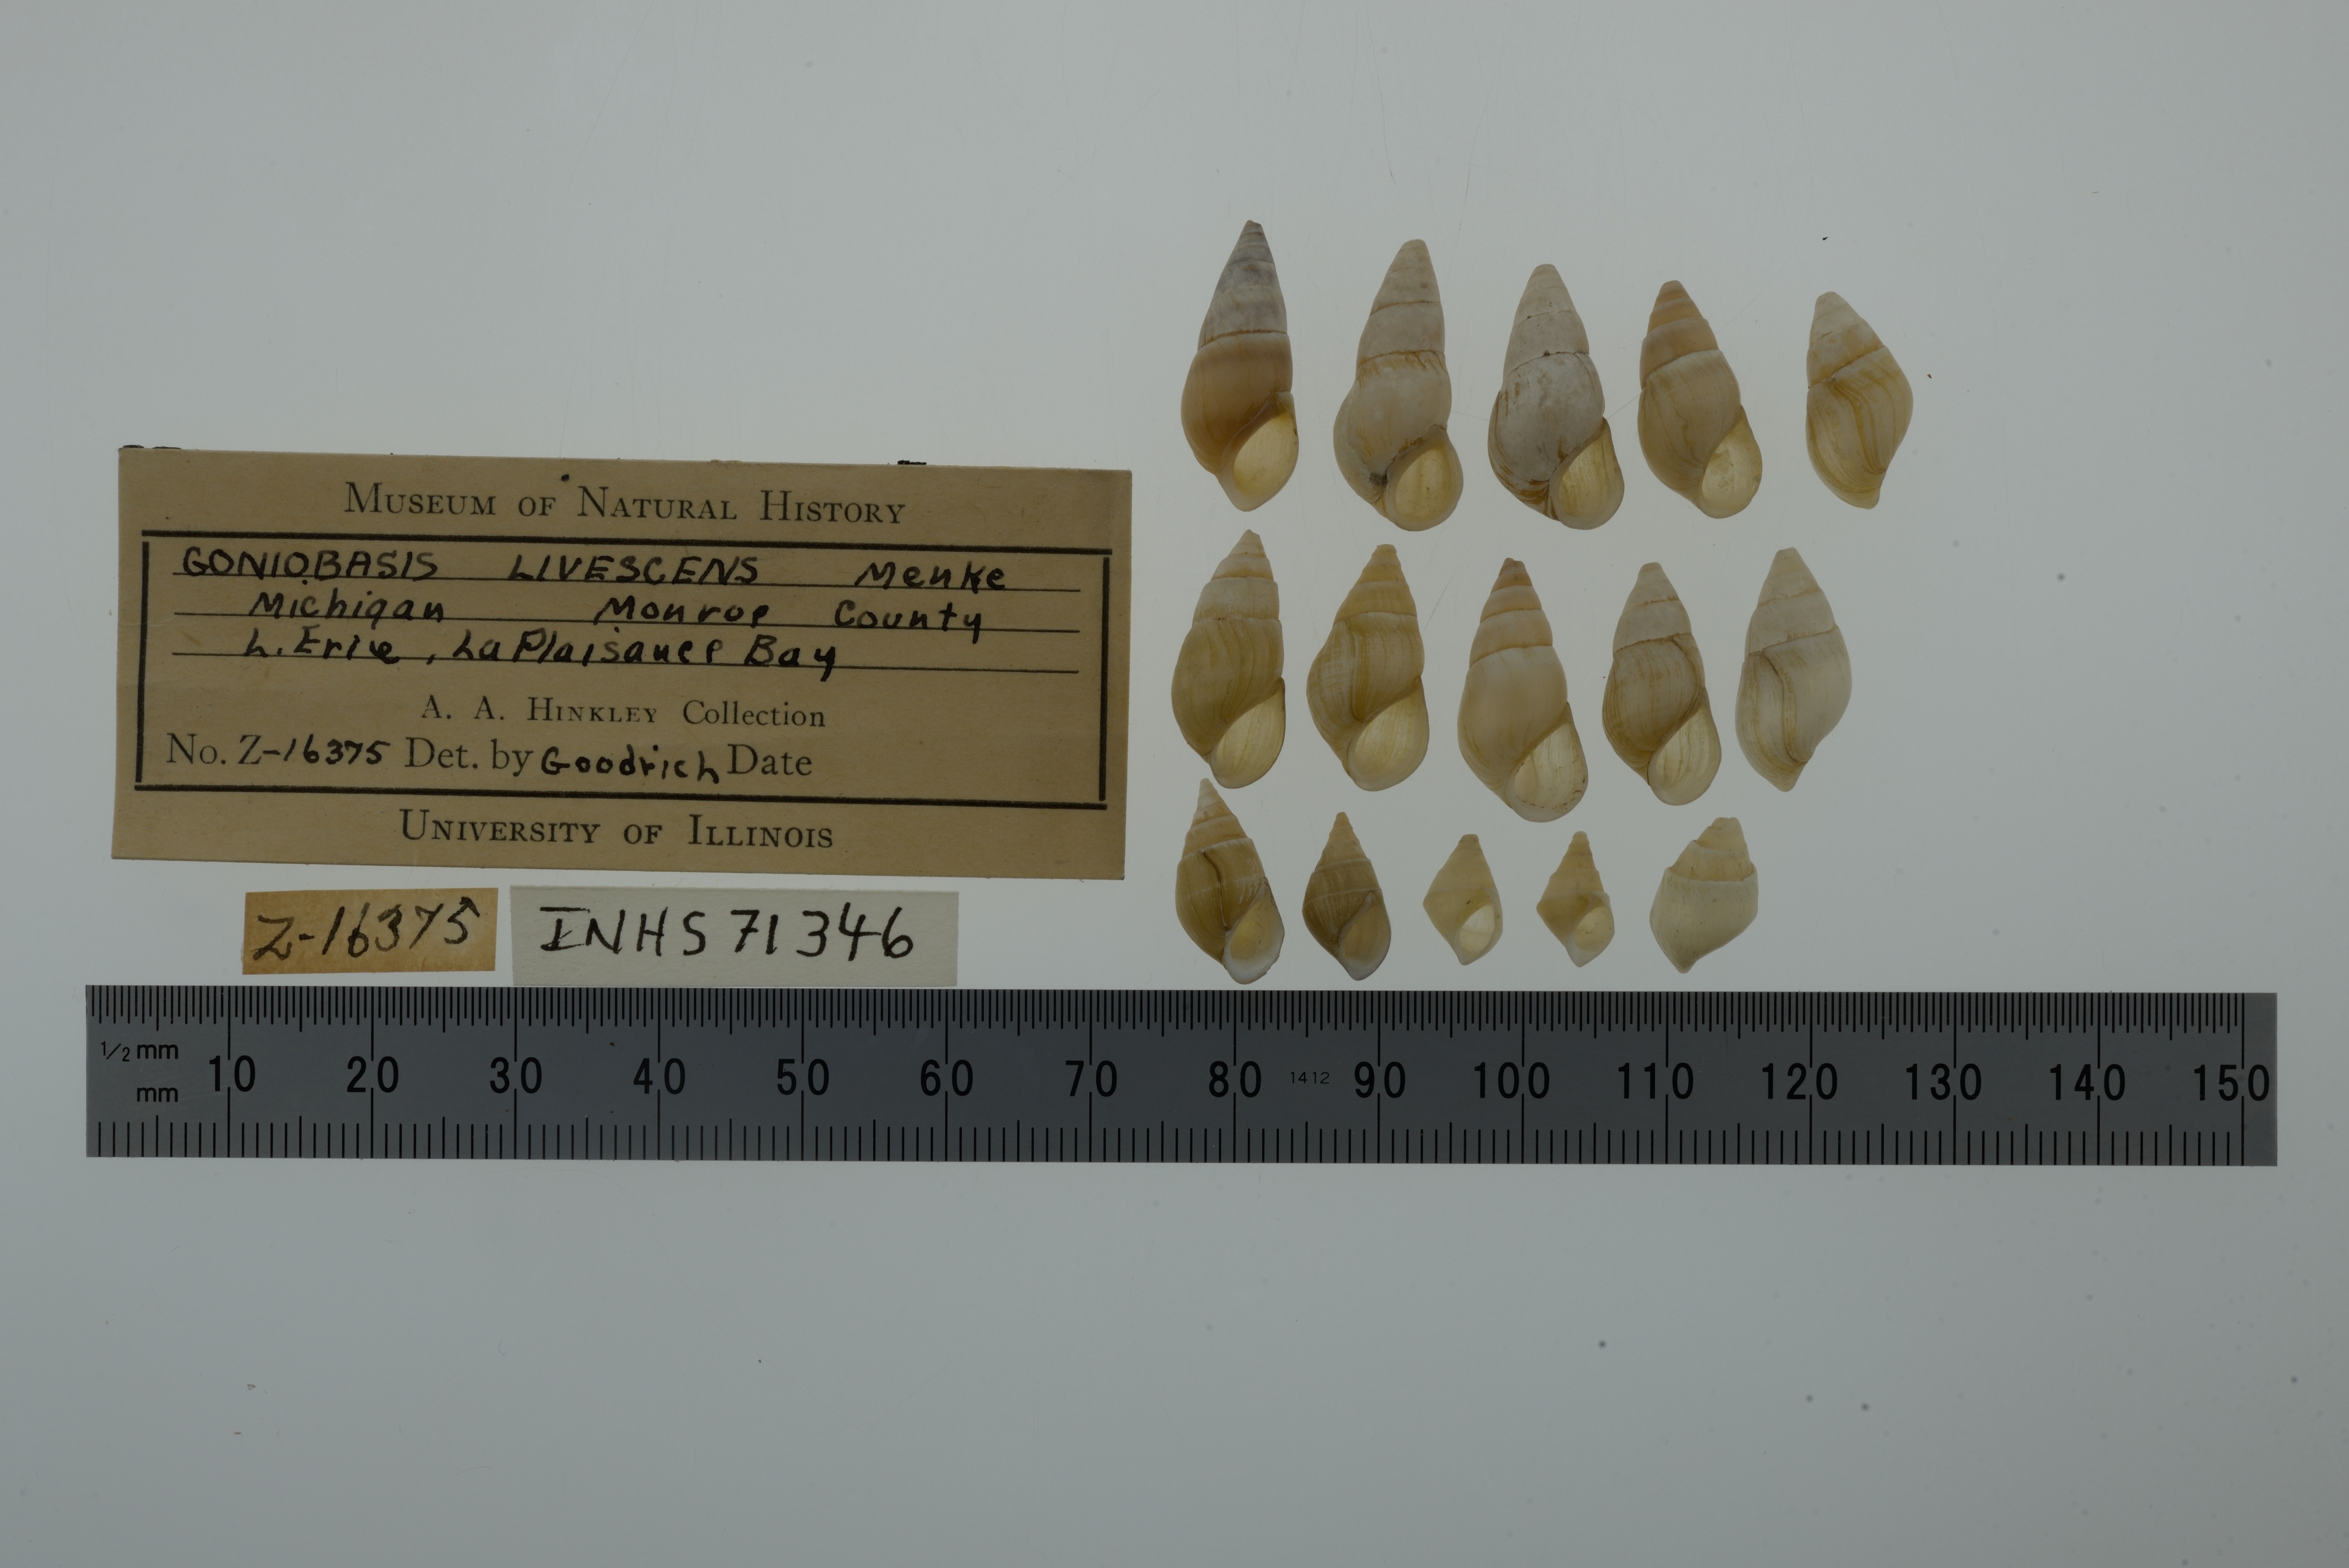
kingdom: Animalia
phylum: Mollusca
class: Gastropoda
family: Pleuroceridae
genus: Elimia
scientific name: Elimia livescens
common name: Liver elimia
